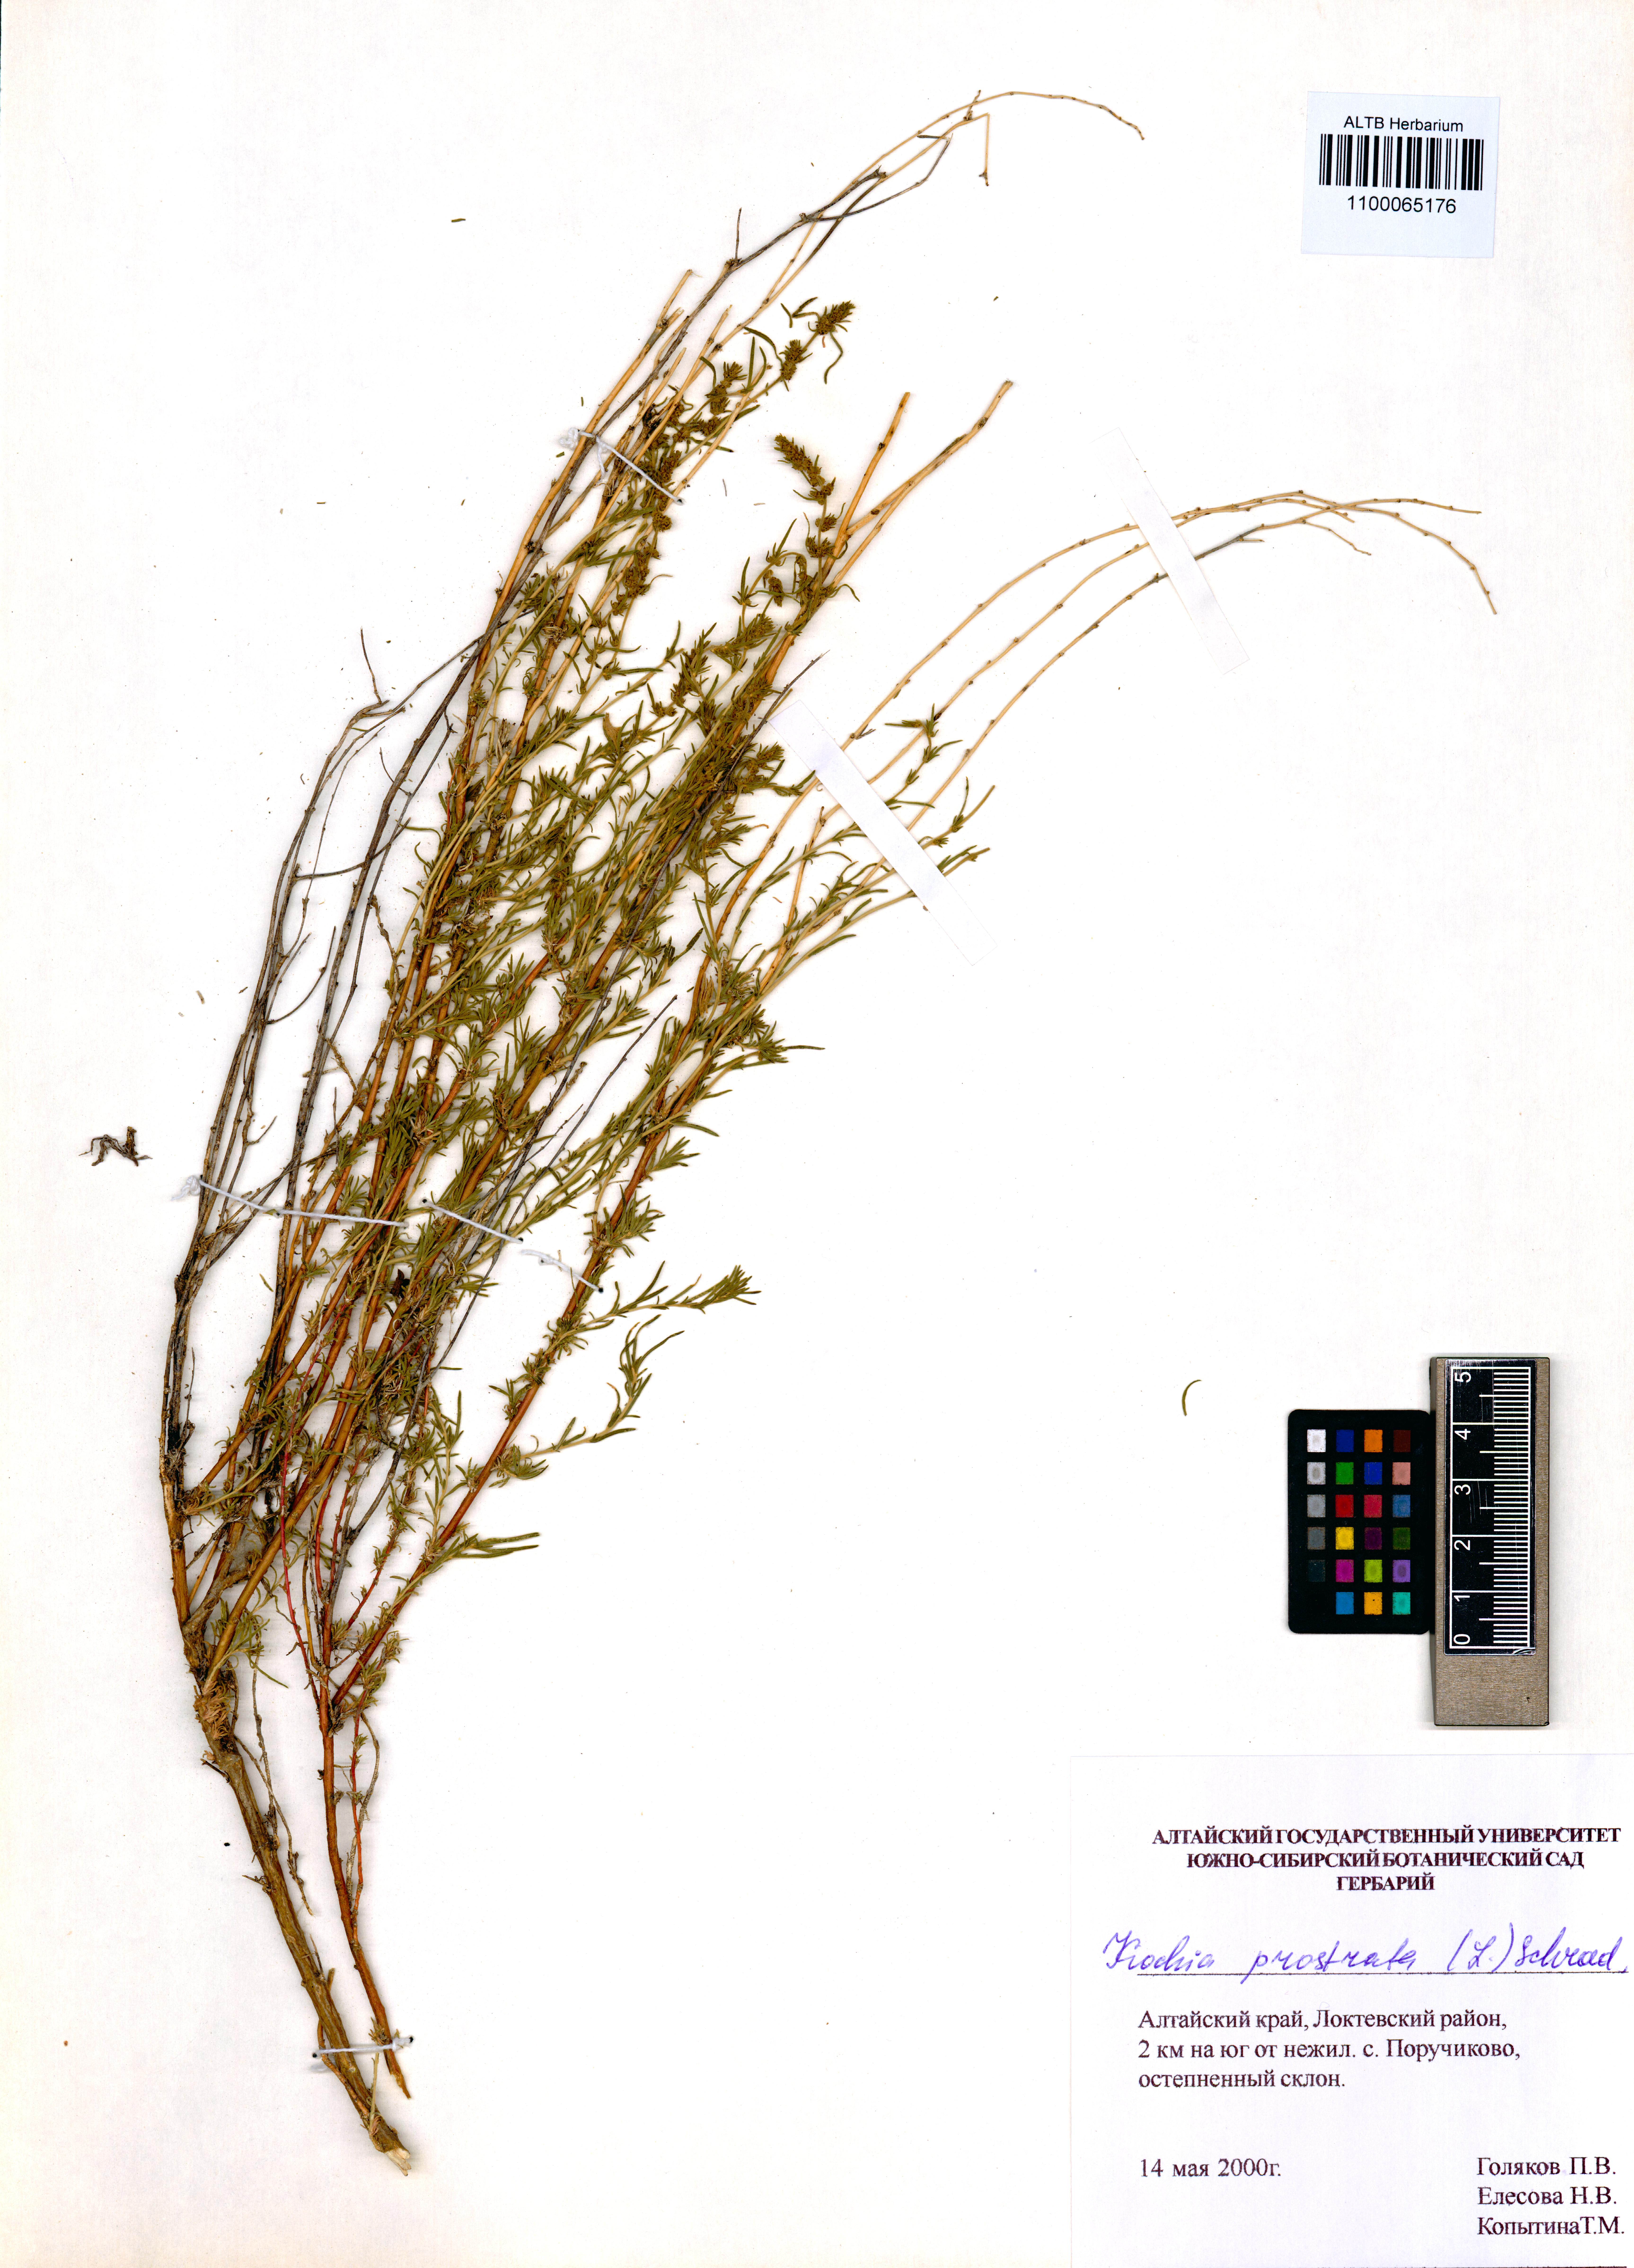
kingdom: Plantae
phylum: Tracheophyta
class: Magnoliopsida
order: Caryophyllales
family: Amaranthaceae
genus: Bassia
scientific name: Bassia prostrata
